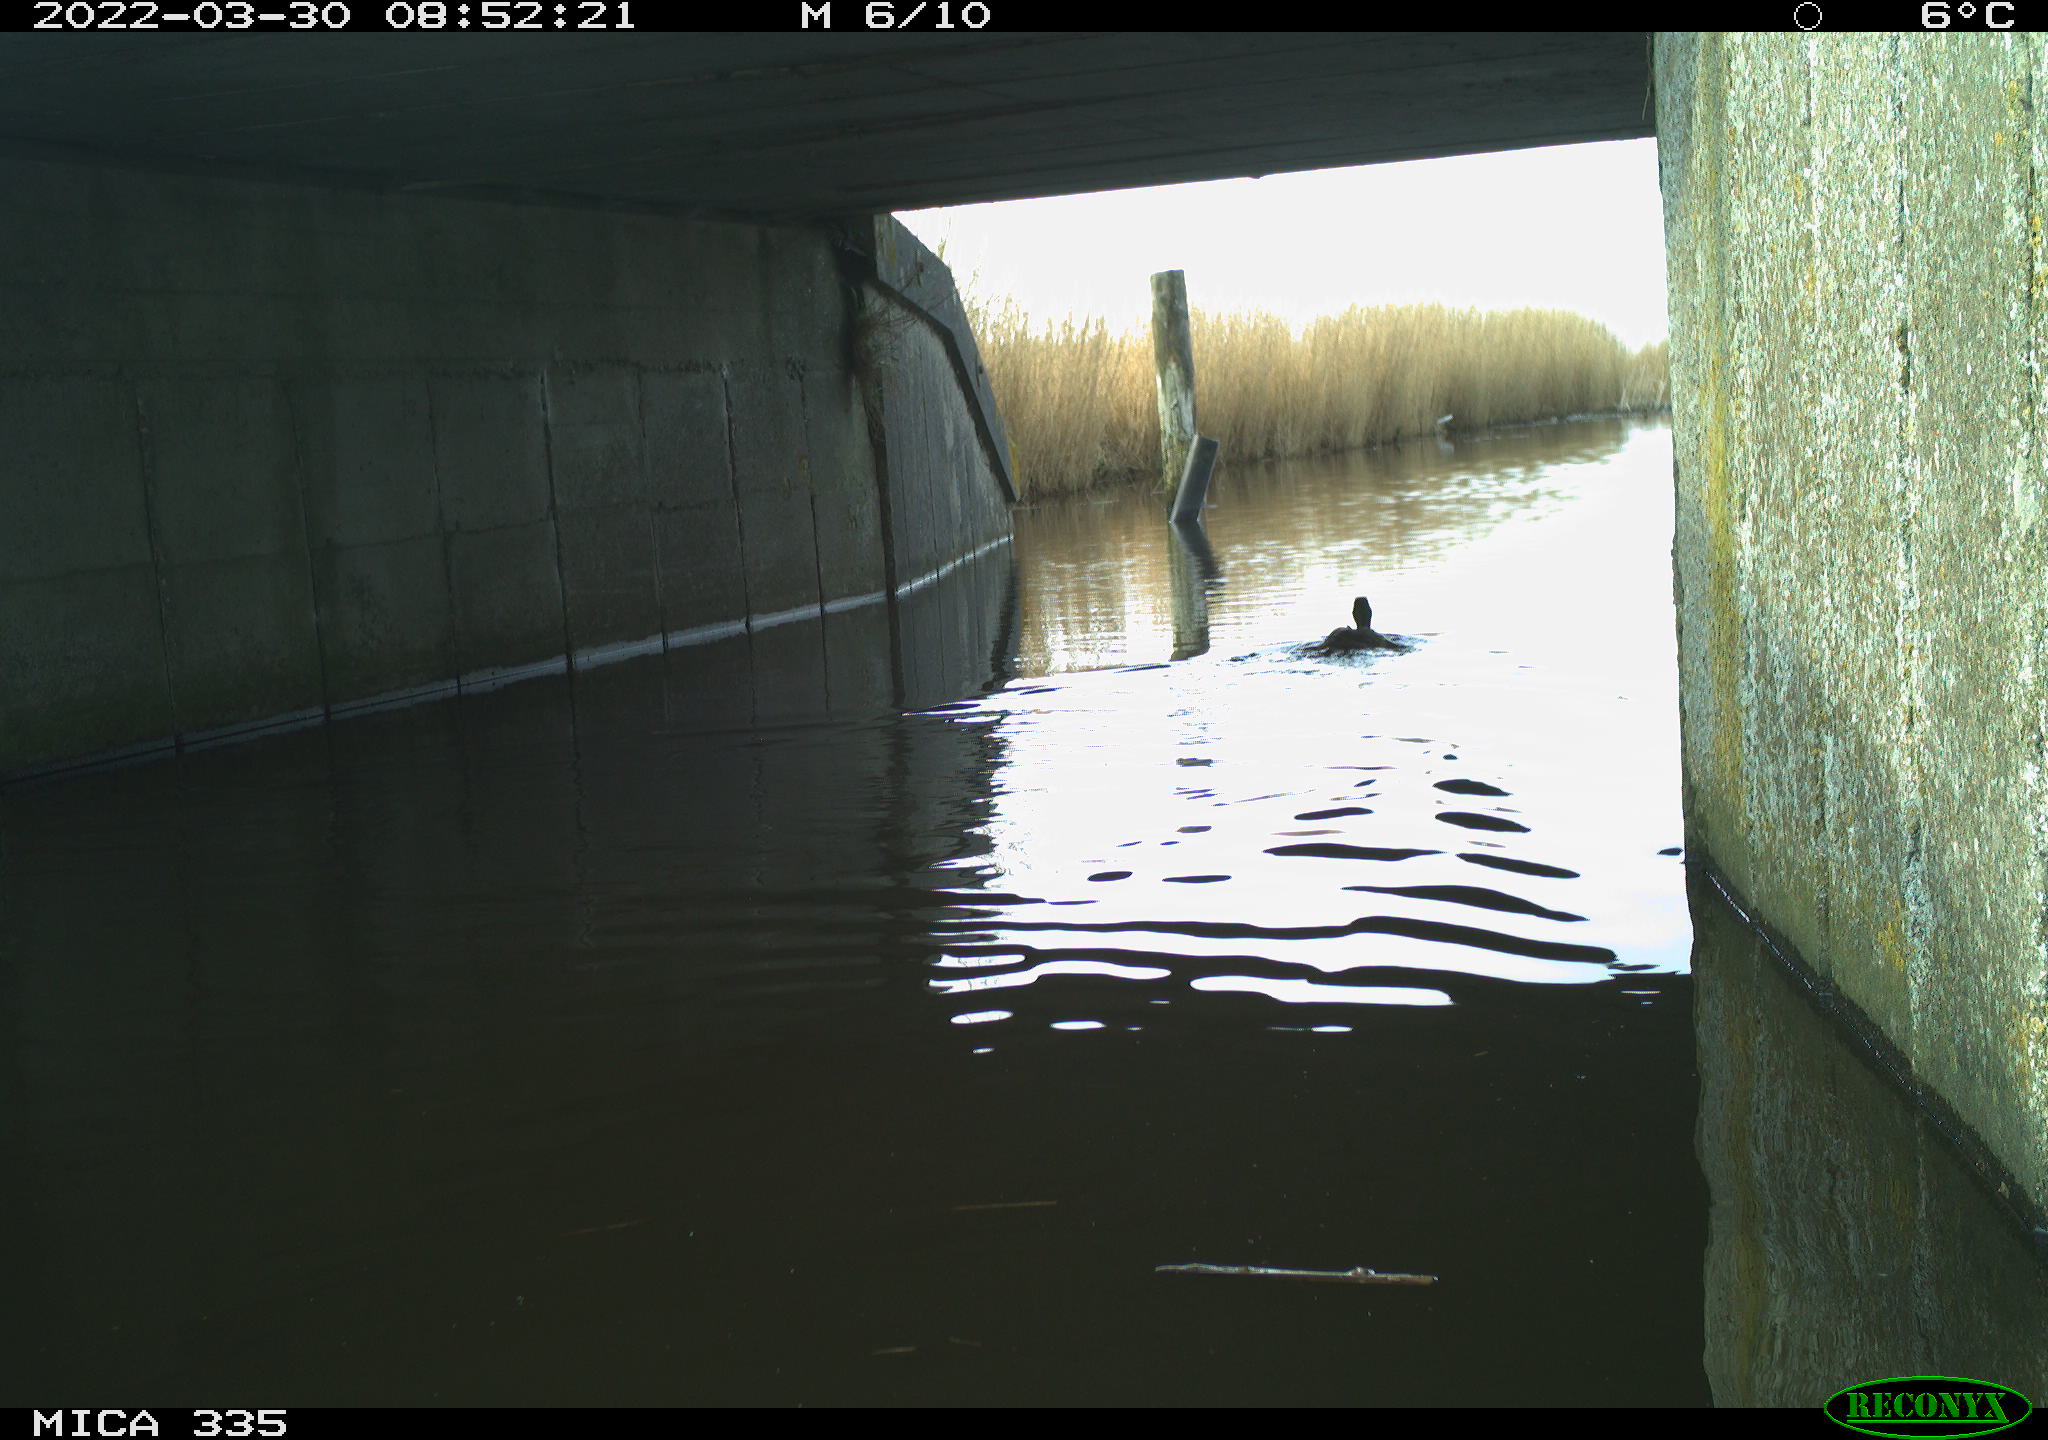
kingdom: Animalia
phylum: Chordata
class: Aves
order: Anseriformes
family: Anatidae
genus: Anas
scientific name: Anas platyrhynchos
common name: Mallard
